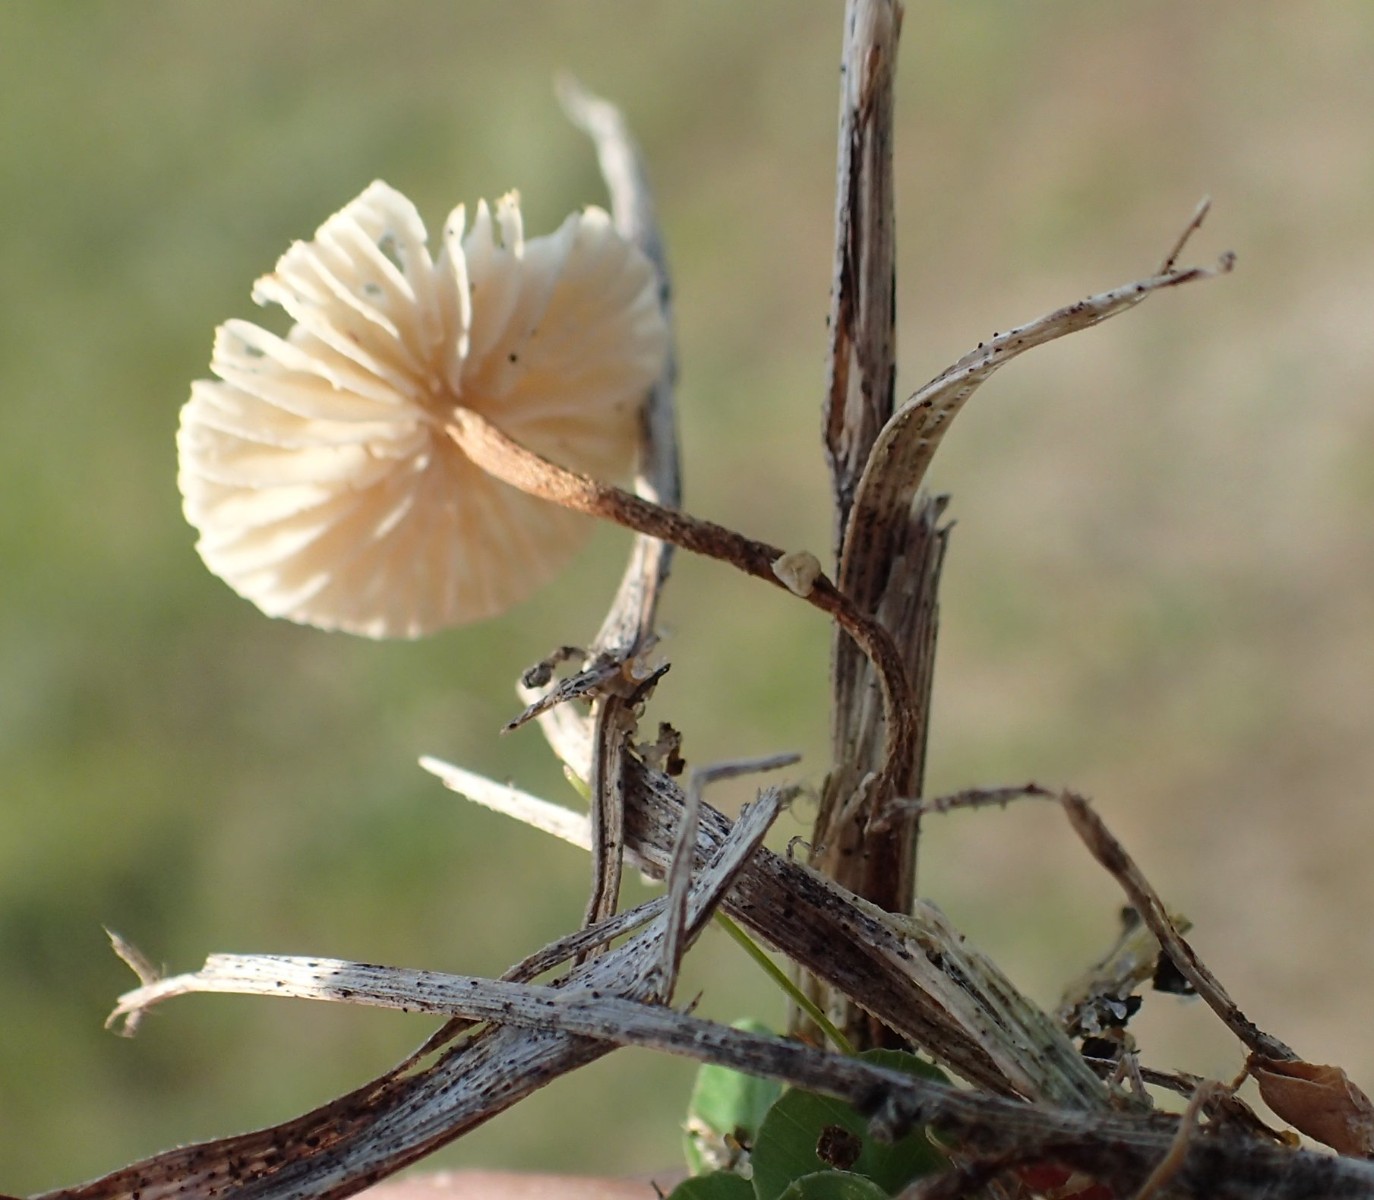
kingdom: Fungi
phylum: Basidiomycota
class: Agaricomycetes
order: Agaricales
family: Marasmiaceae
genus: Crinipellis
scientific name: Crinipellis scabella
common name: børstefod
